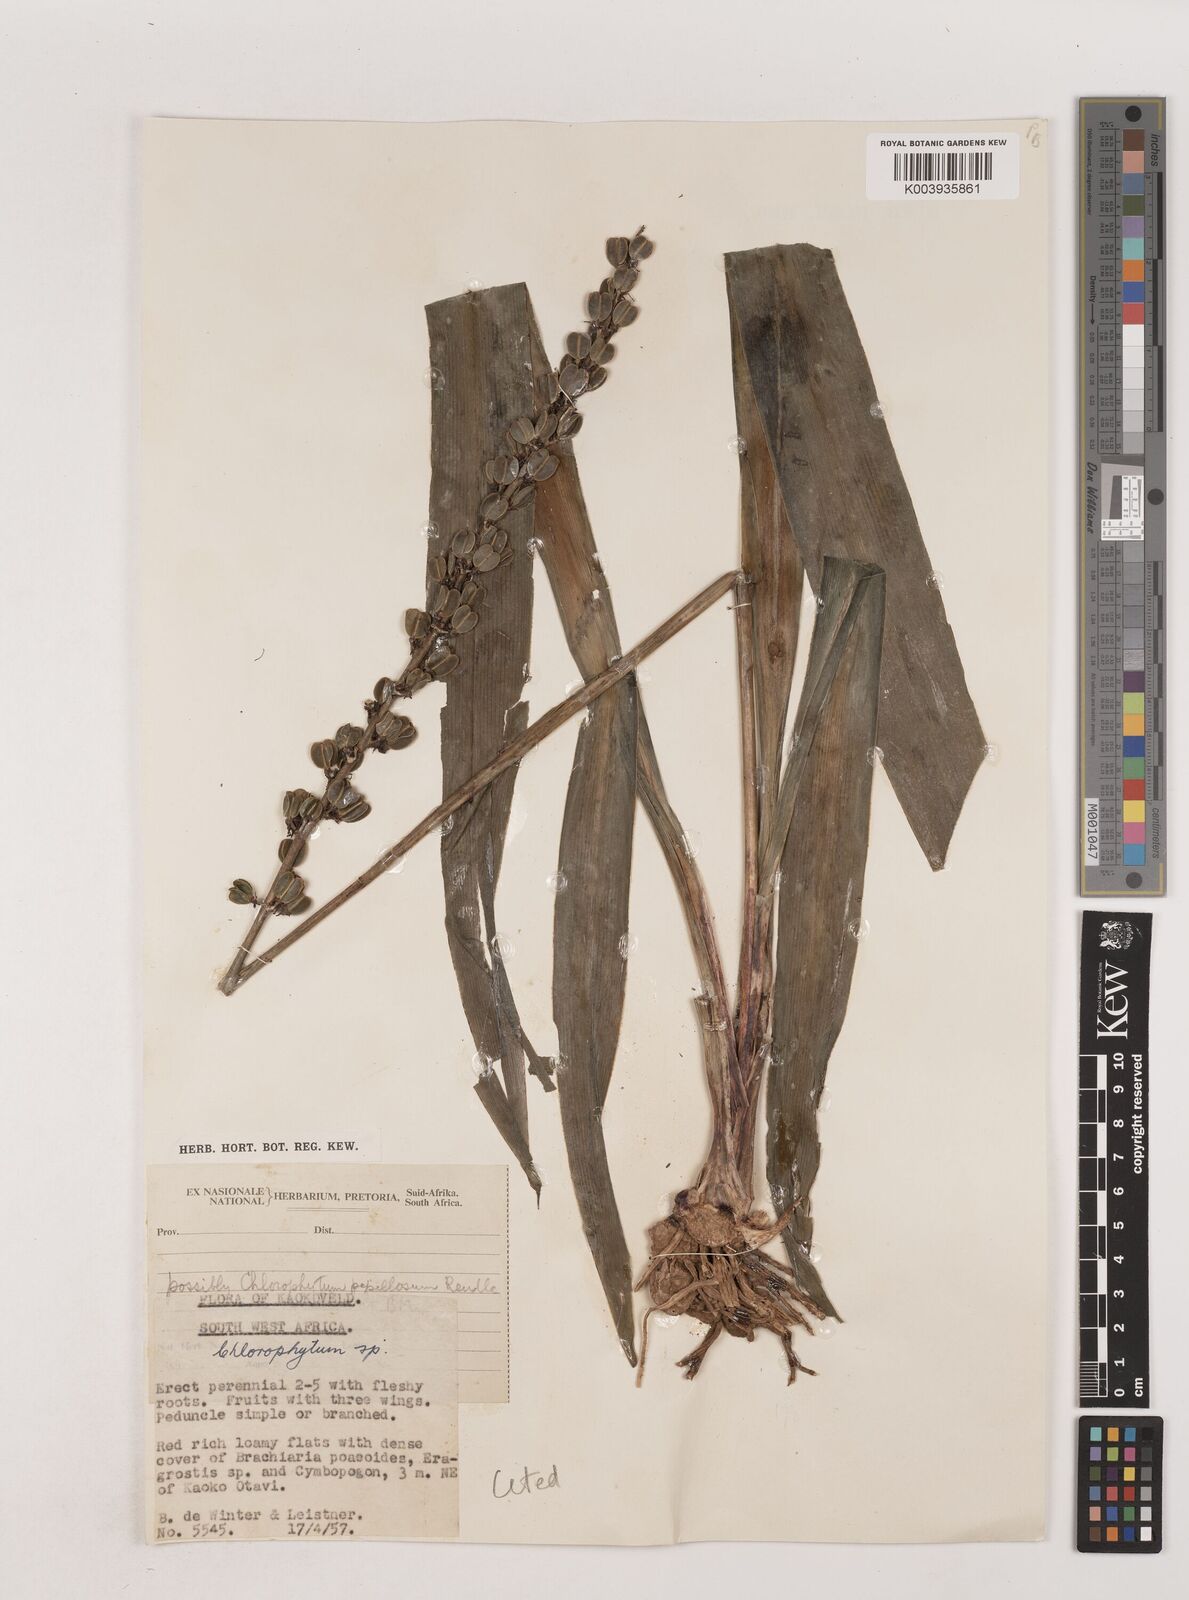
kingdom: Plantae
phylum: Tracheophyta
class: Liliopsida
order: Asparagales
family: Asparagaceae
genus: Chlorophytum
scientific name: Chlorophytum longifolium
